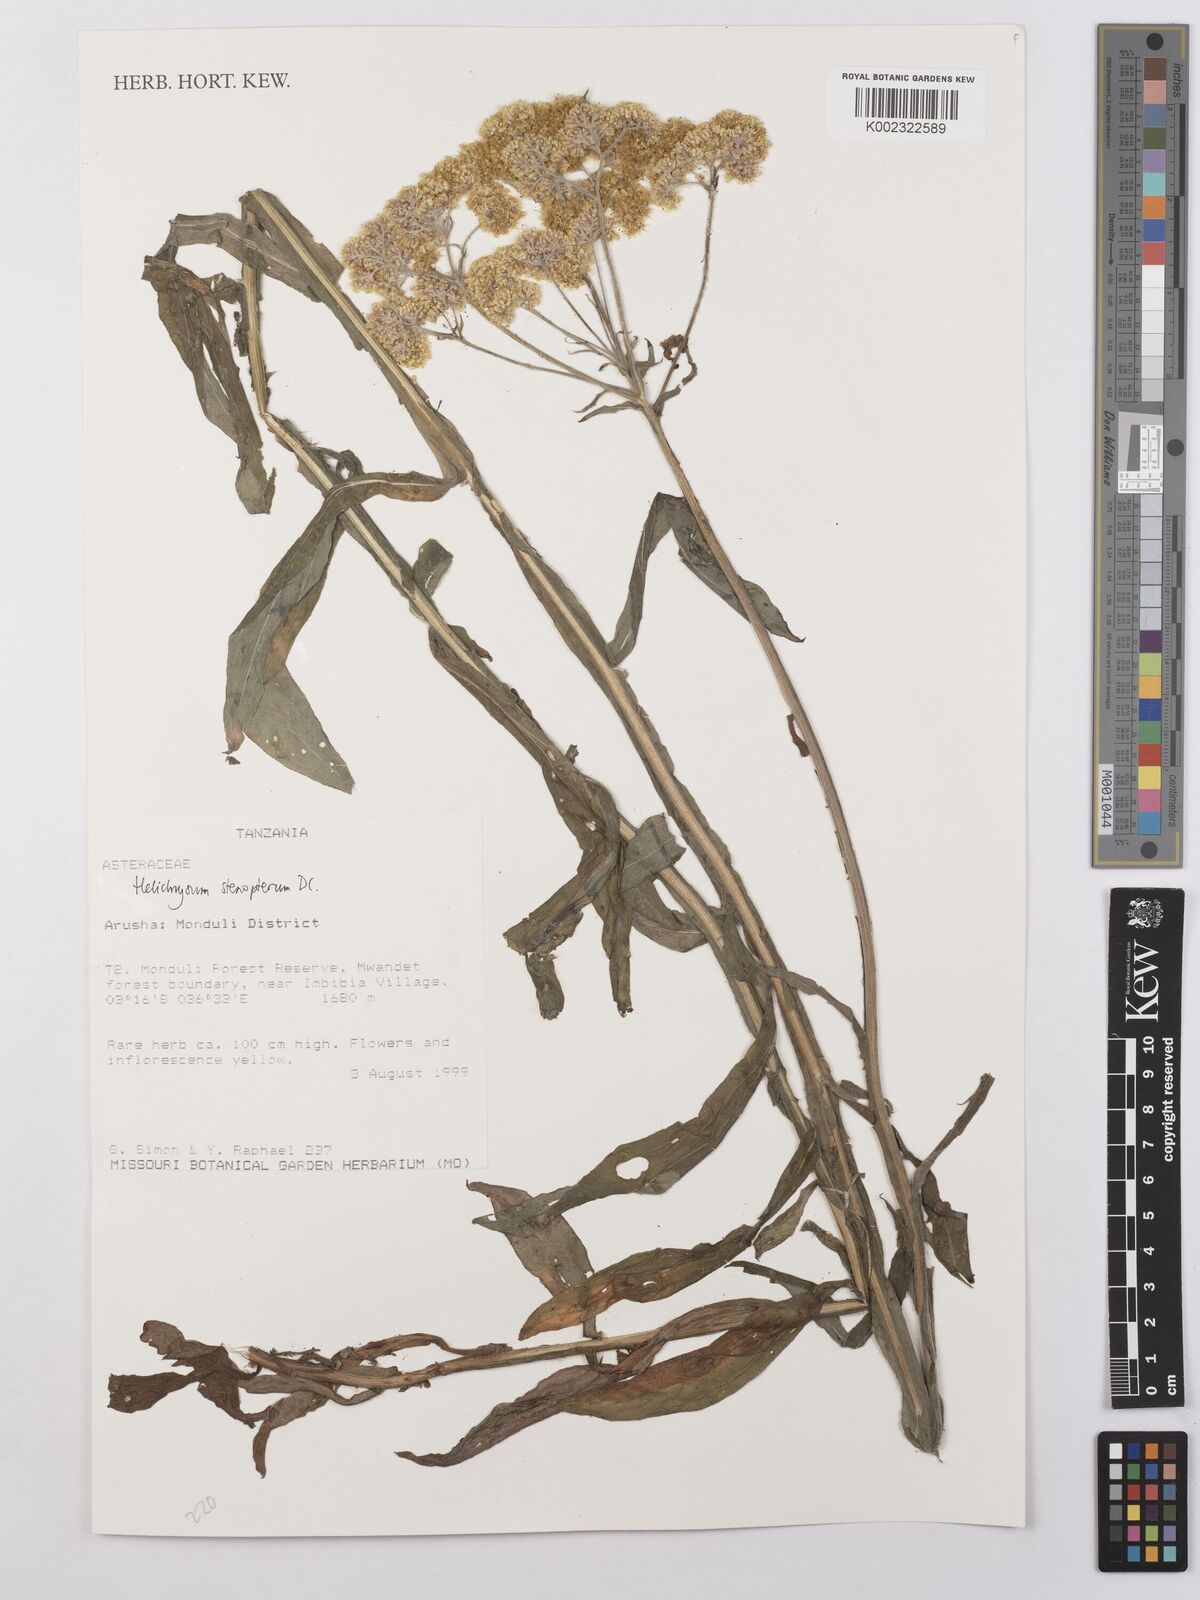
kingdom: Plantae
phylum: Tracheophyta
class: Magnoliopsida
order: Asterales
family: Asteraceae
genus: Helichrysum
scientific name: Helichrysum stenopterum
